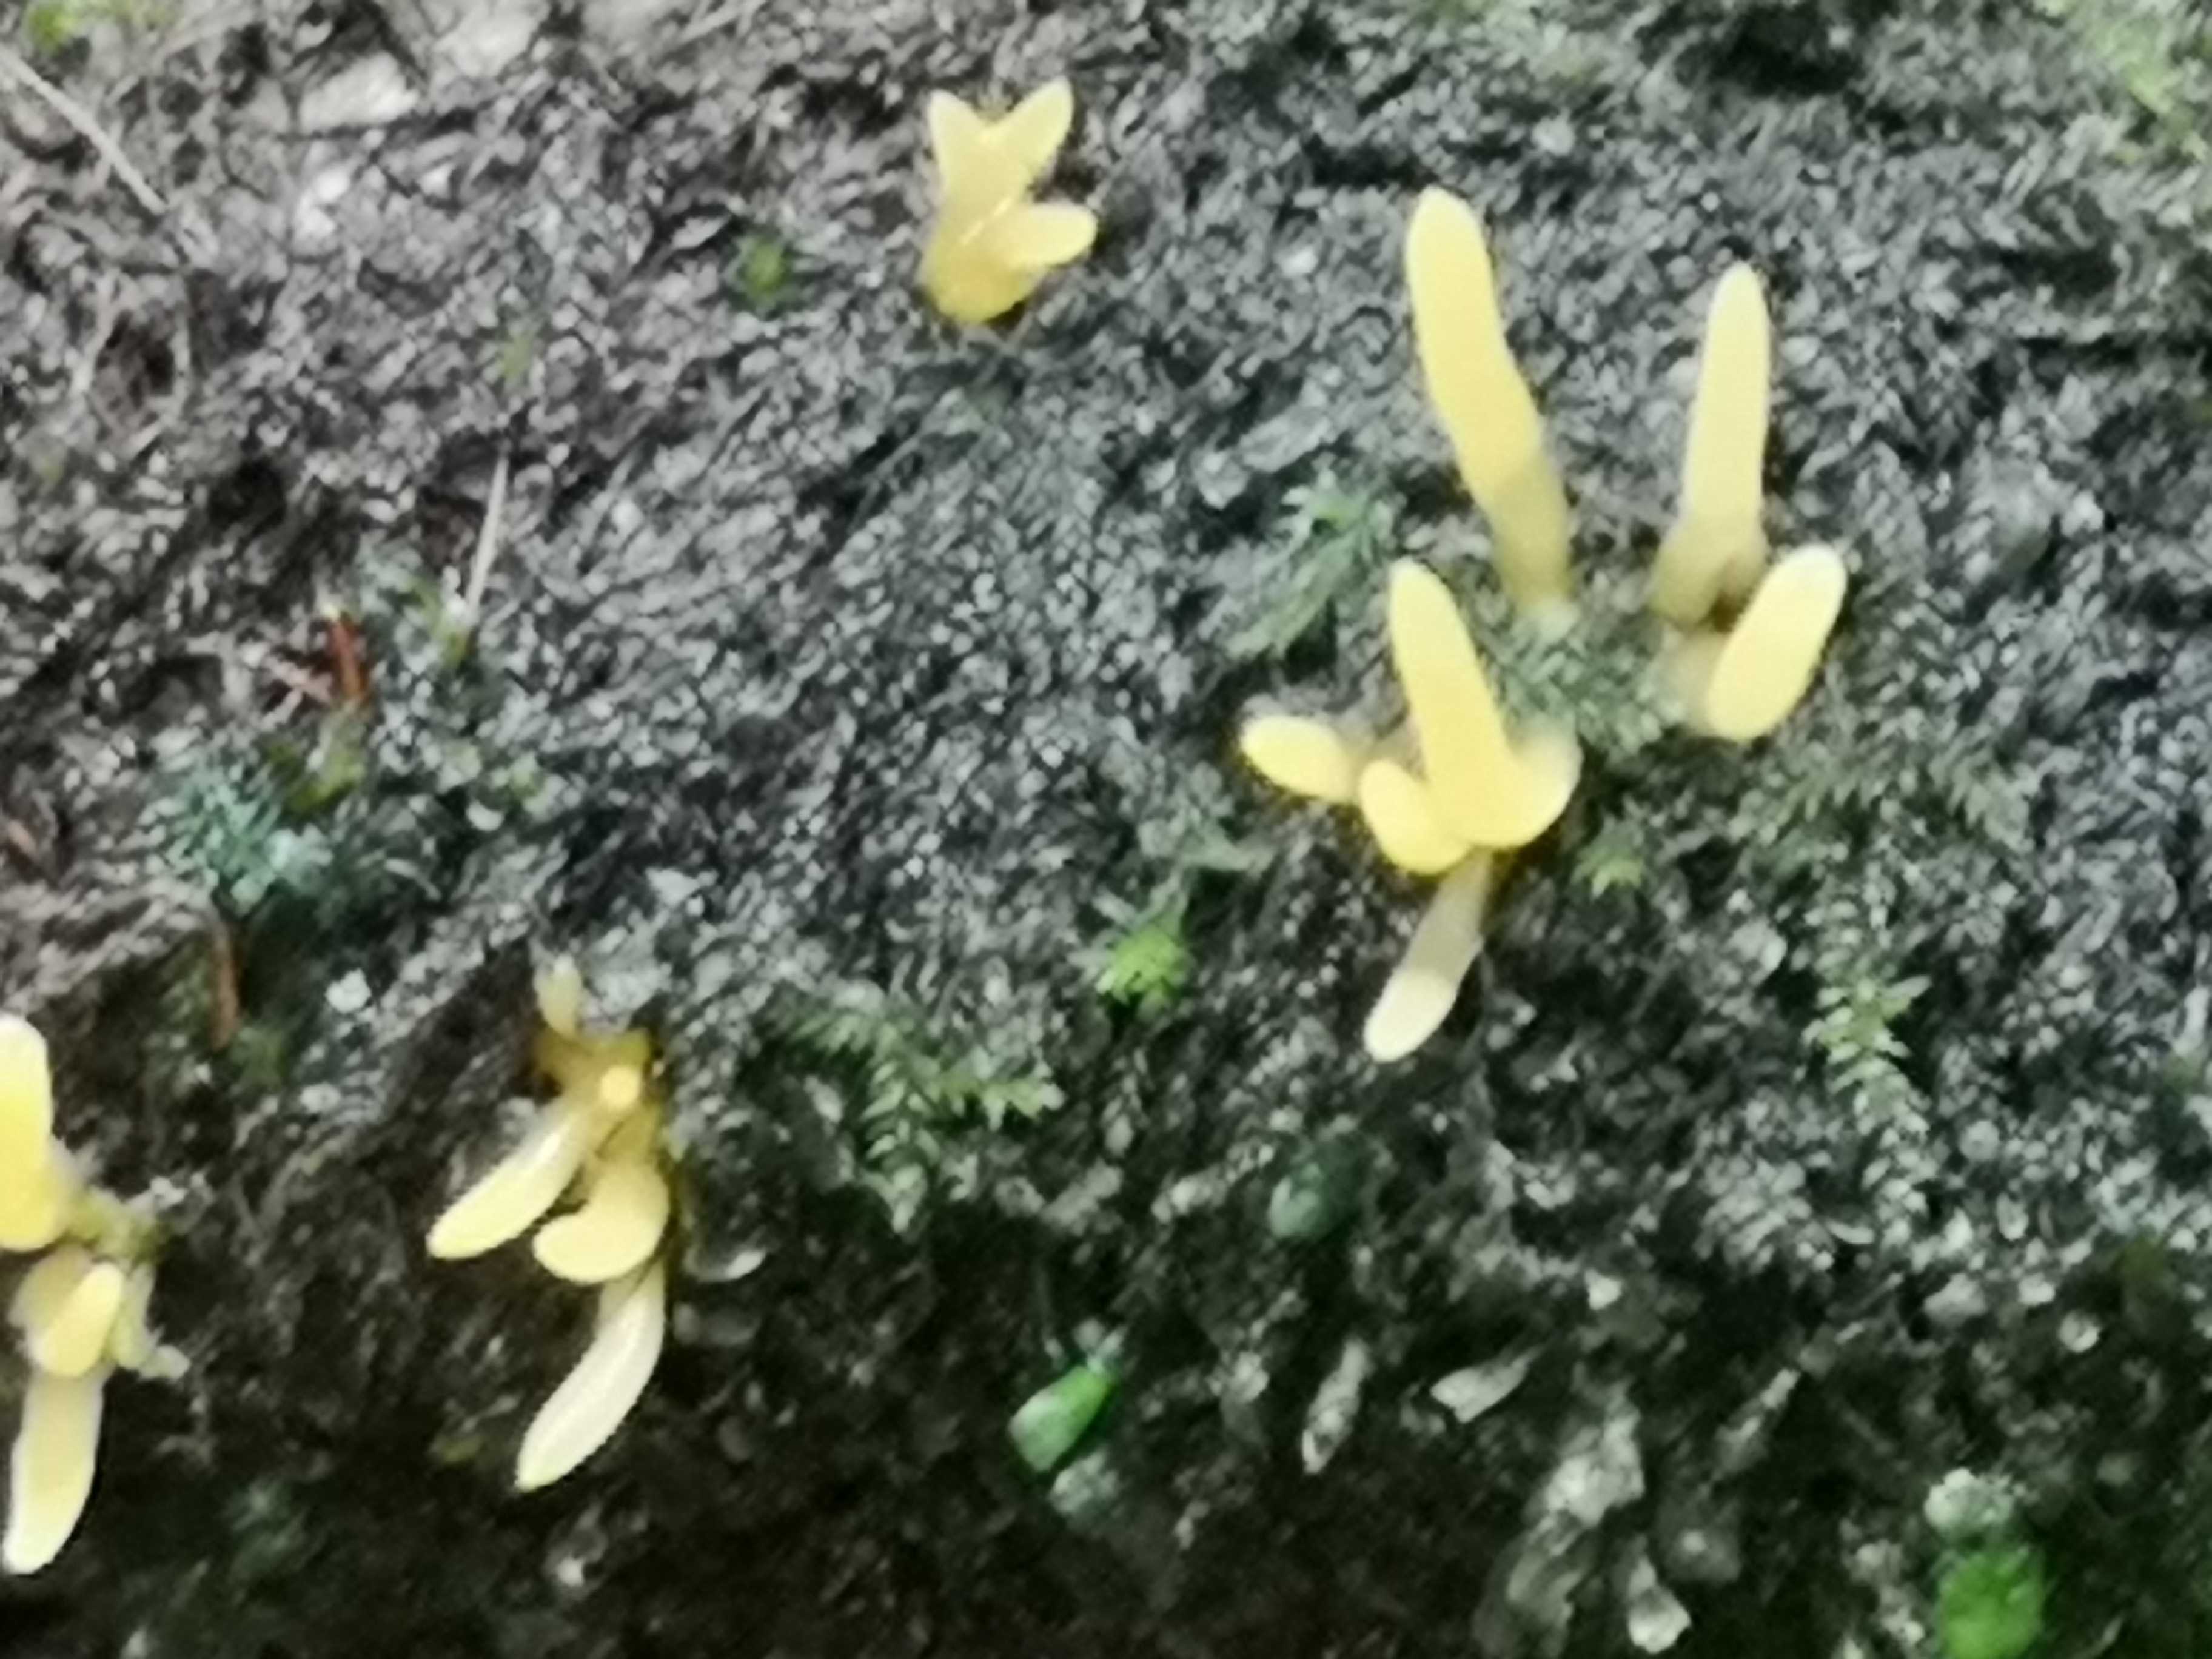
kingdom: Fungi
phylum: Basidiomycota
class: Dacrymycetes
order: Dacrymycetales
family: Dacrymycetaceae
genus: Calocera
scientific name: Calocera cornea
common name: liden guldgaffel
